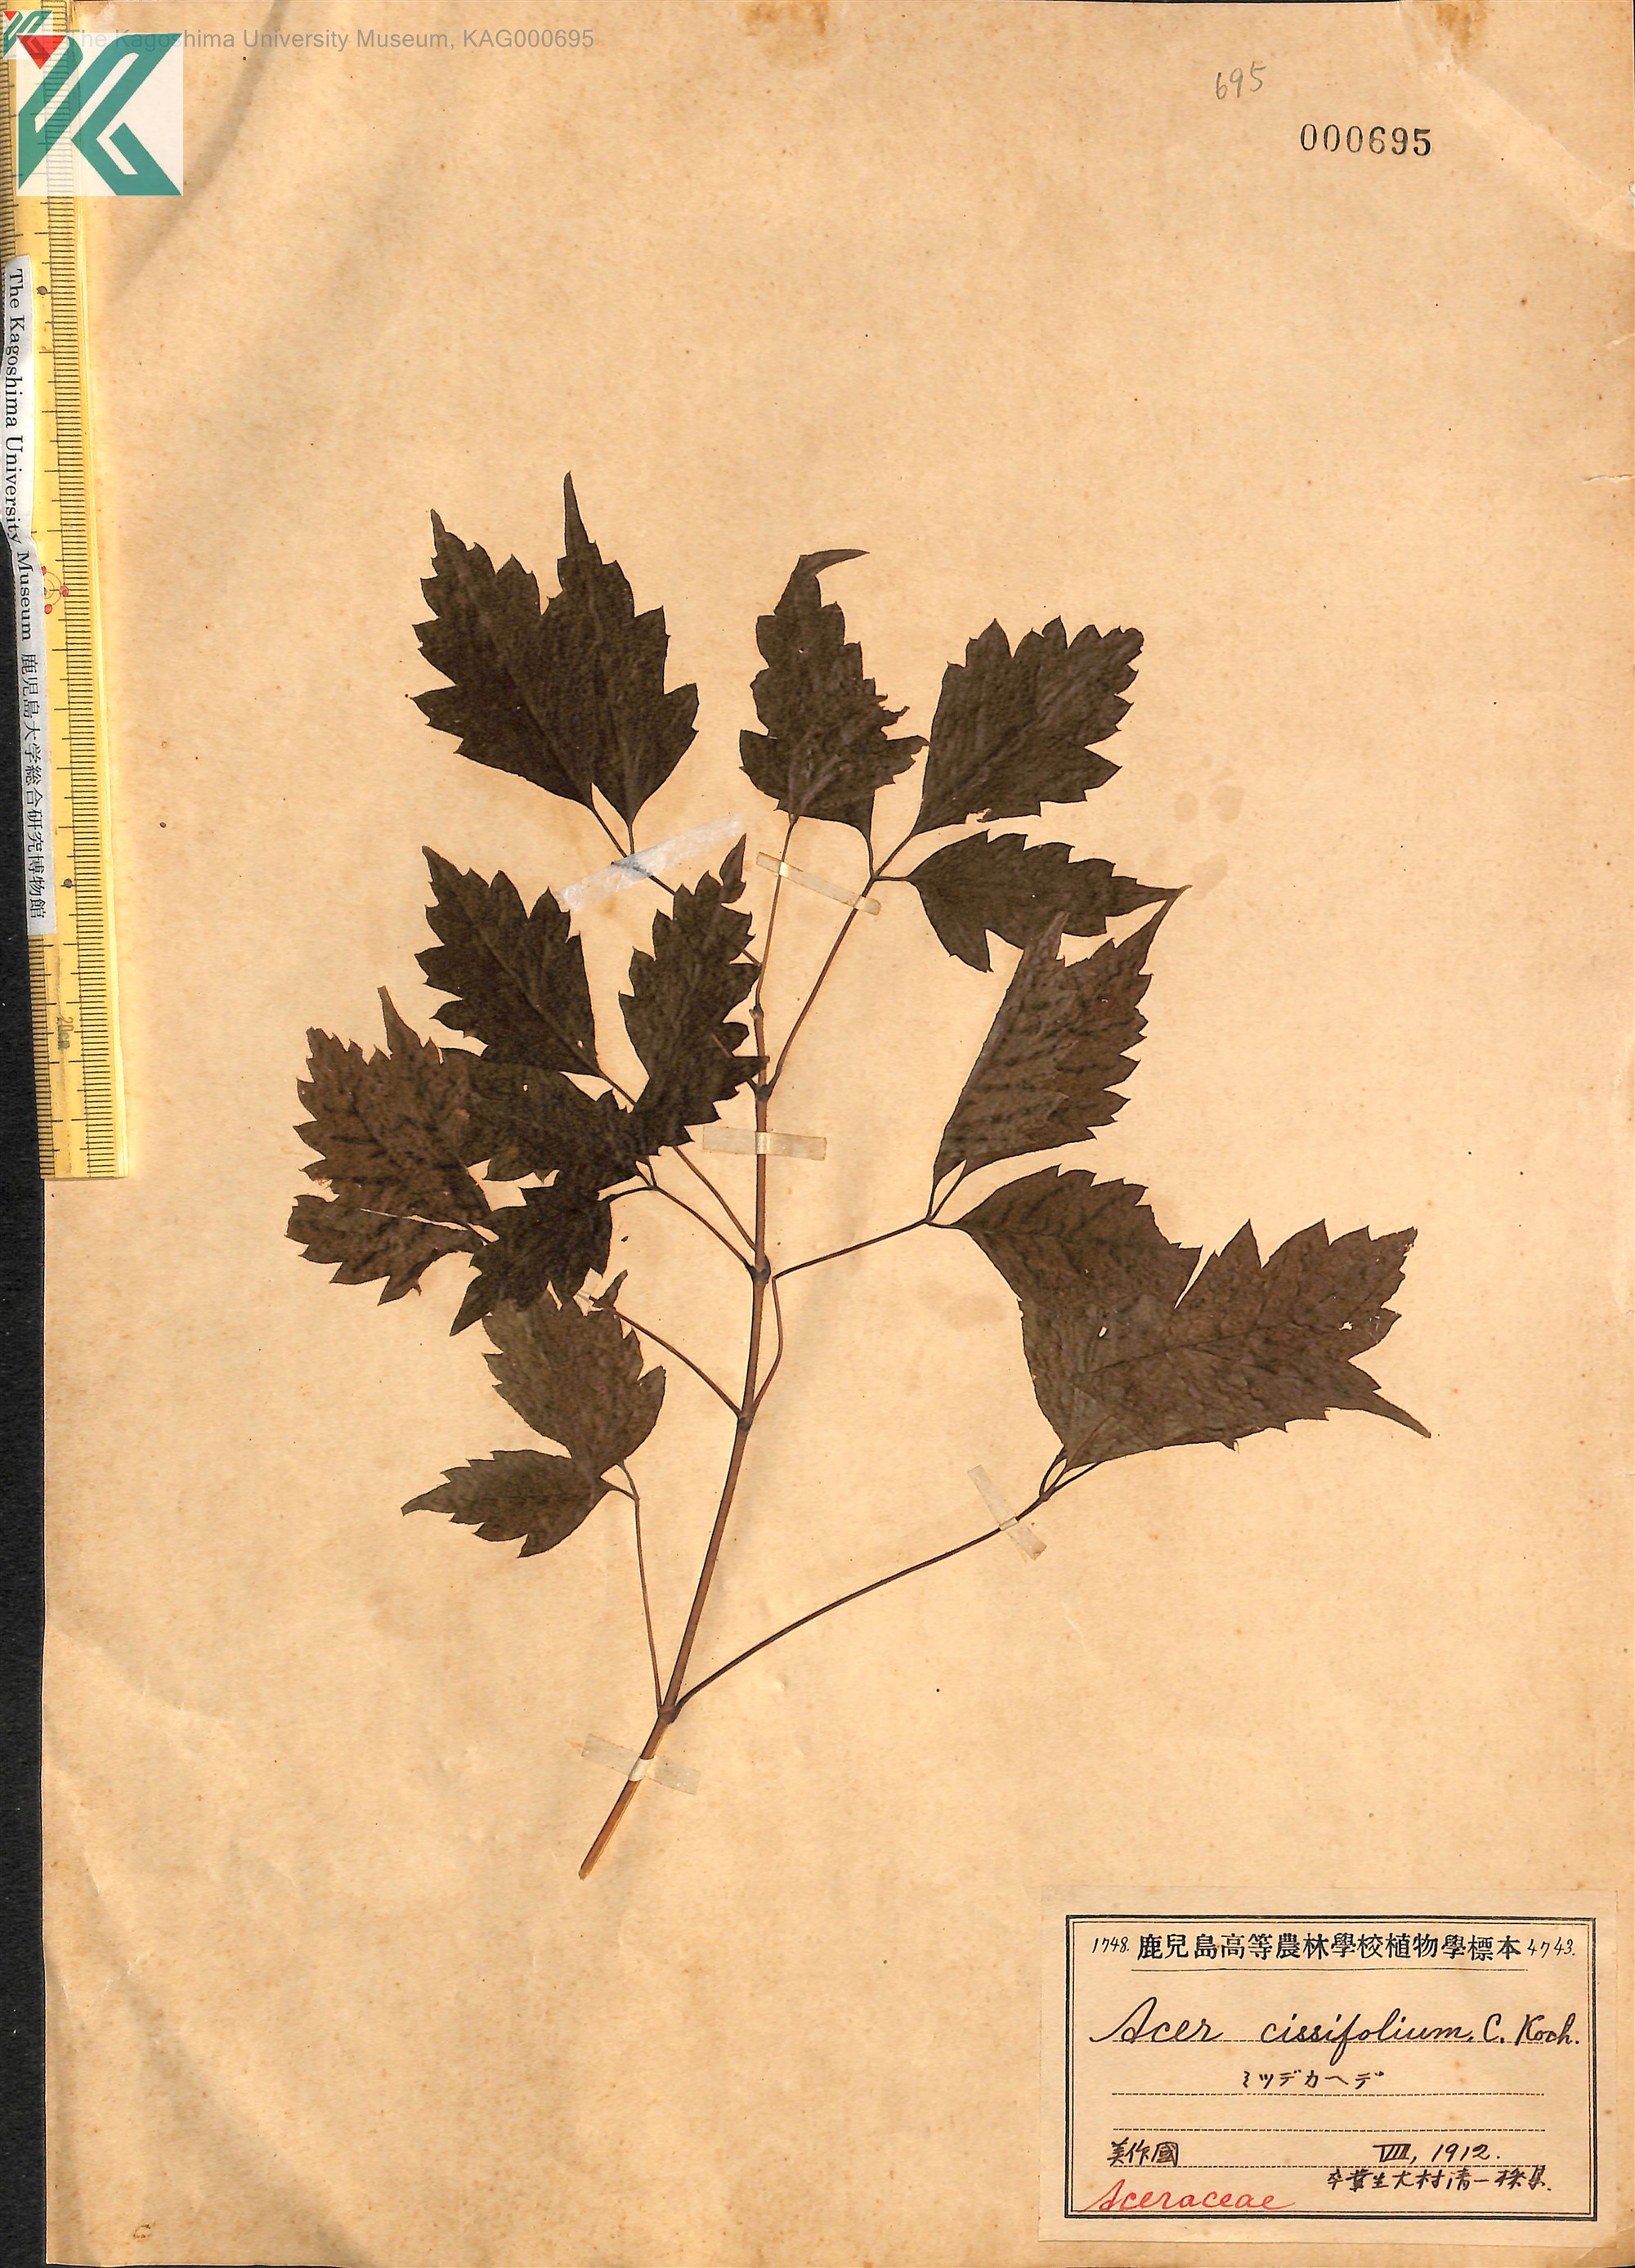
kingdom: Plantae
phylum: Tracheophyta
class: Magnoliopsida
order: Sapindales
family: Sapindaceae
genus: Acer
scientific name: Acer cissifolium
